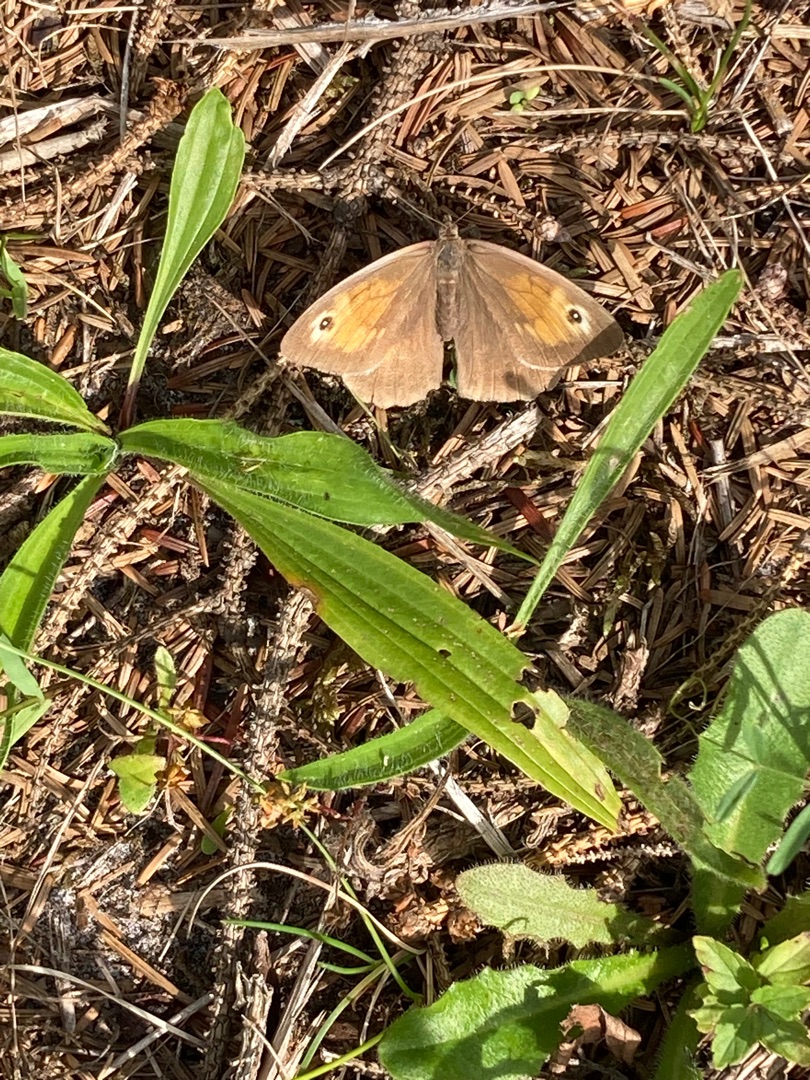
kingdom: Animalia
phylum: Arthropoda
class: Insecta
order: Lepidoptera
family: Nymphalidae
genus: Maniola
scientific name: Maniola jurtina
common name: Græsrandøje
